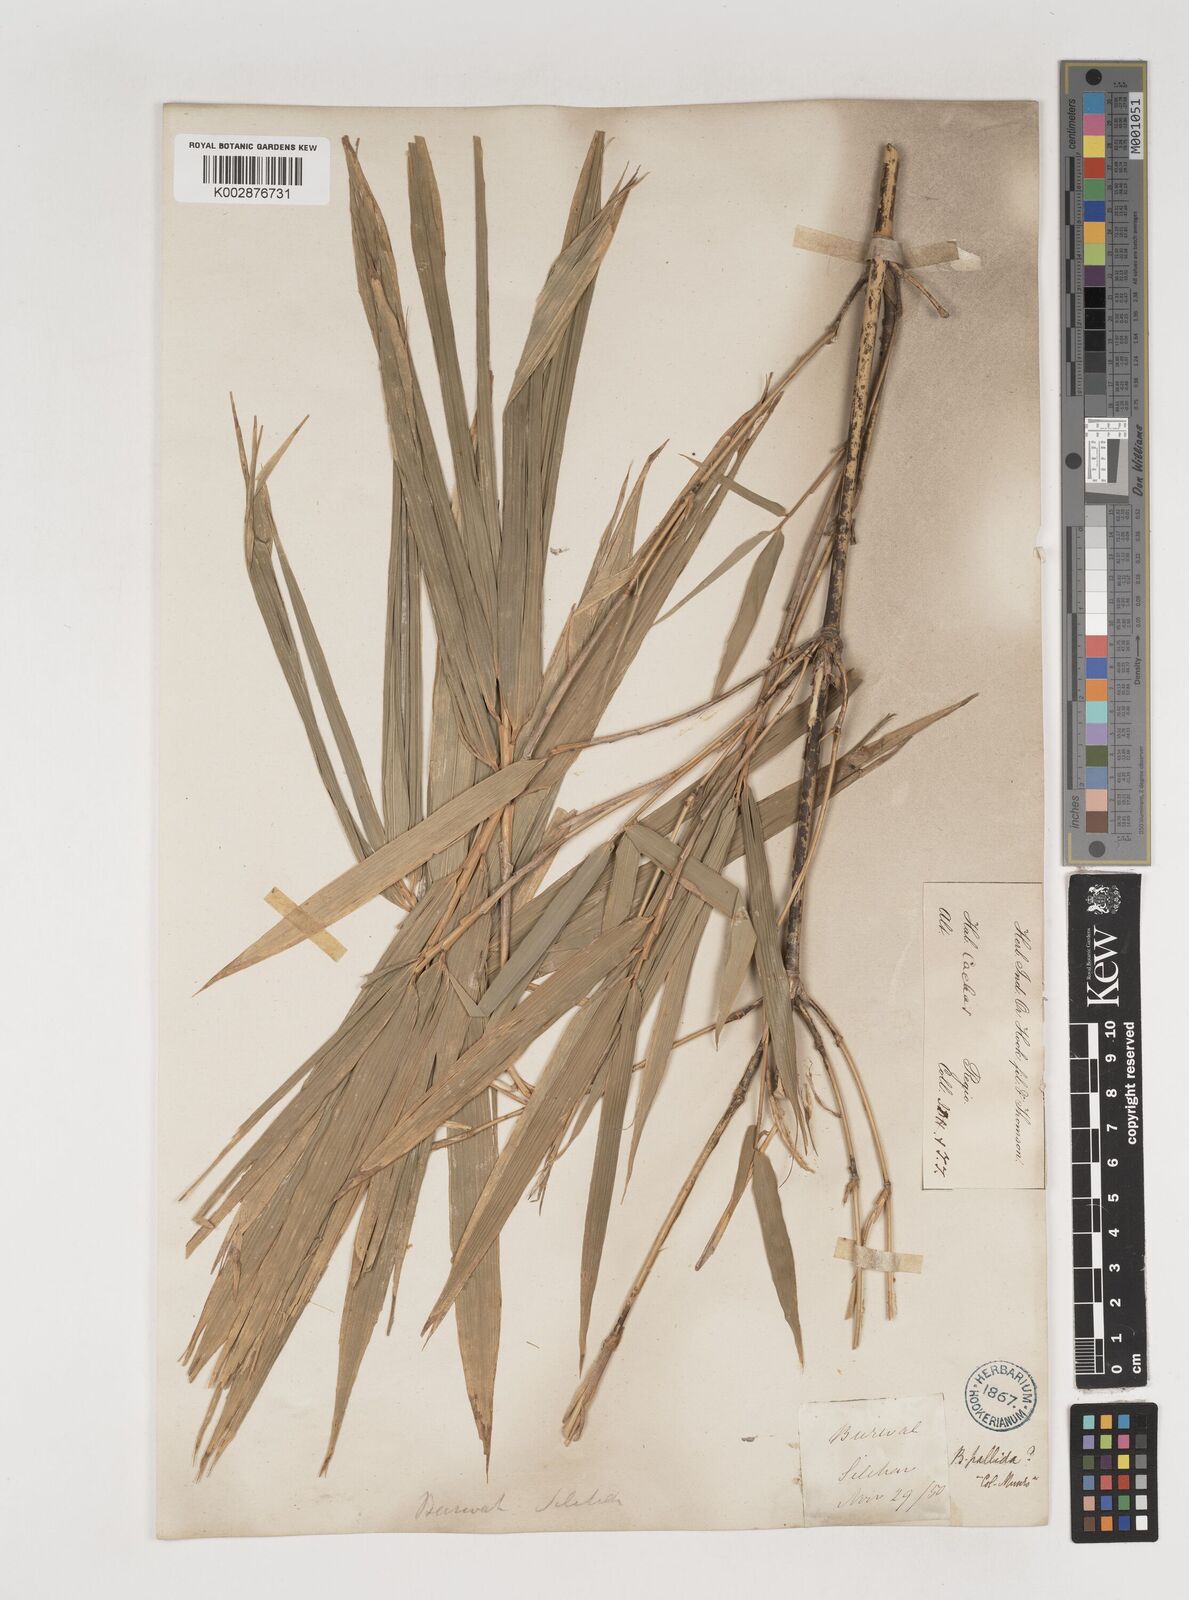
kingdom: Plantae
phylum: Tracheophyta
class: Liliopsida
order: Poales
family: Poaceae
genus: Bambusa
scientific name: Bambusa pallida
